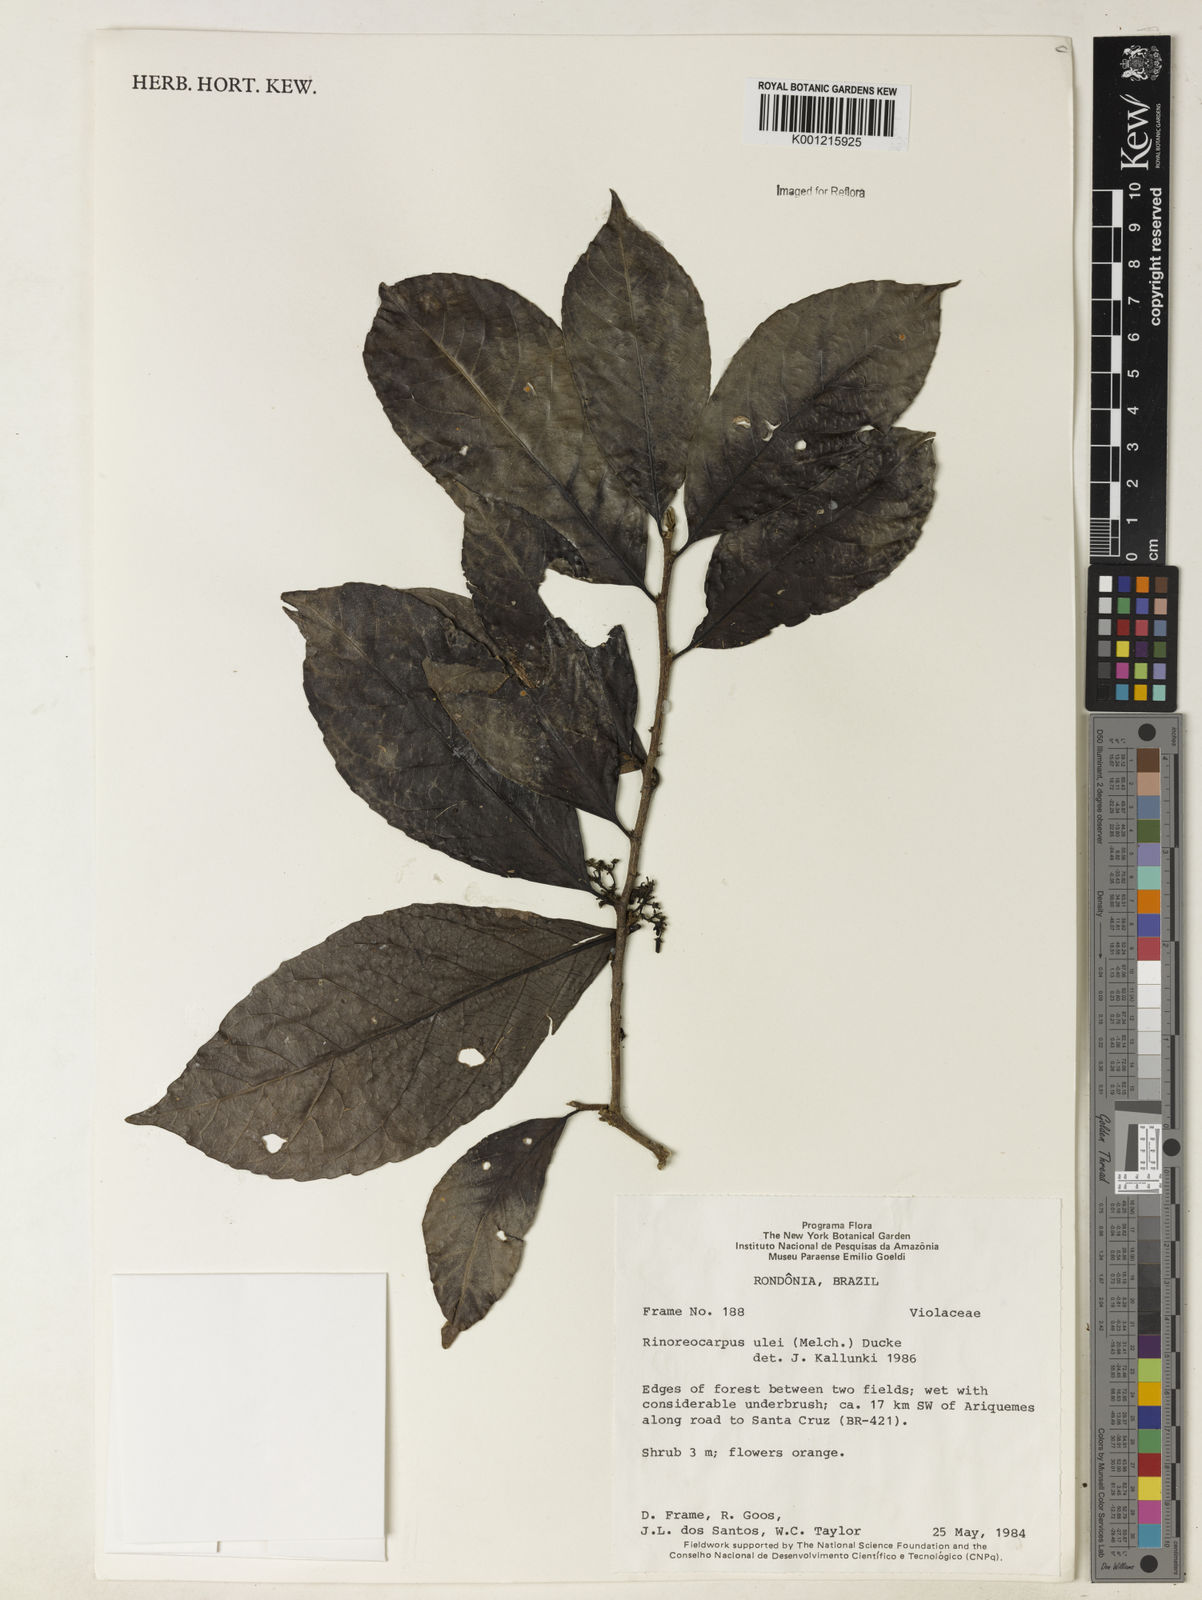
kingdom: Plantae
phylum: Tracheophyta
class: Magnoliopsida
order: Malpighiales
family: Violaceae
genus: Rinorea
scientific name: Rinorea
